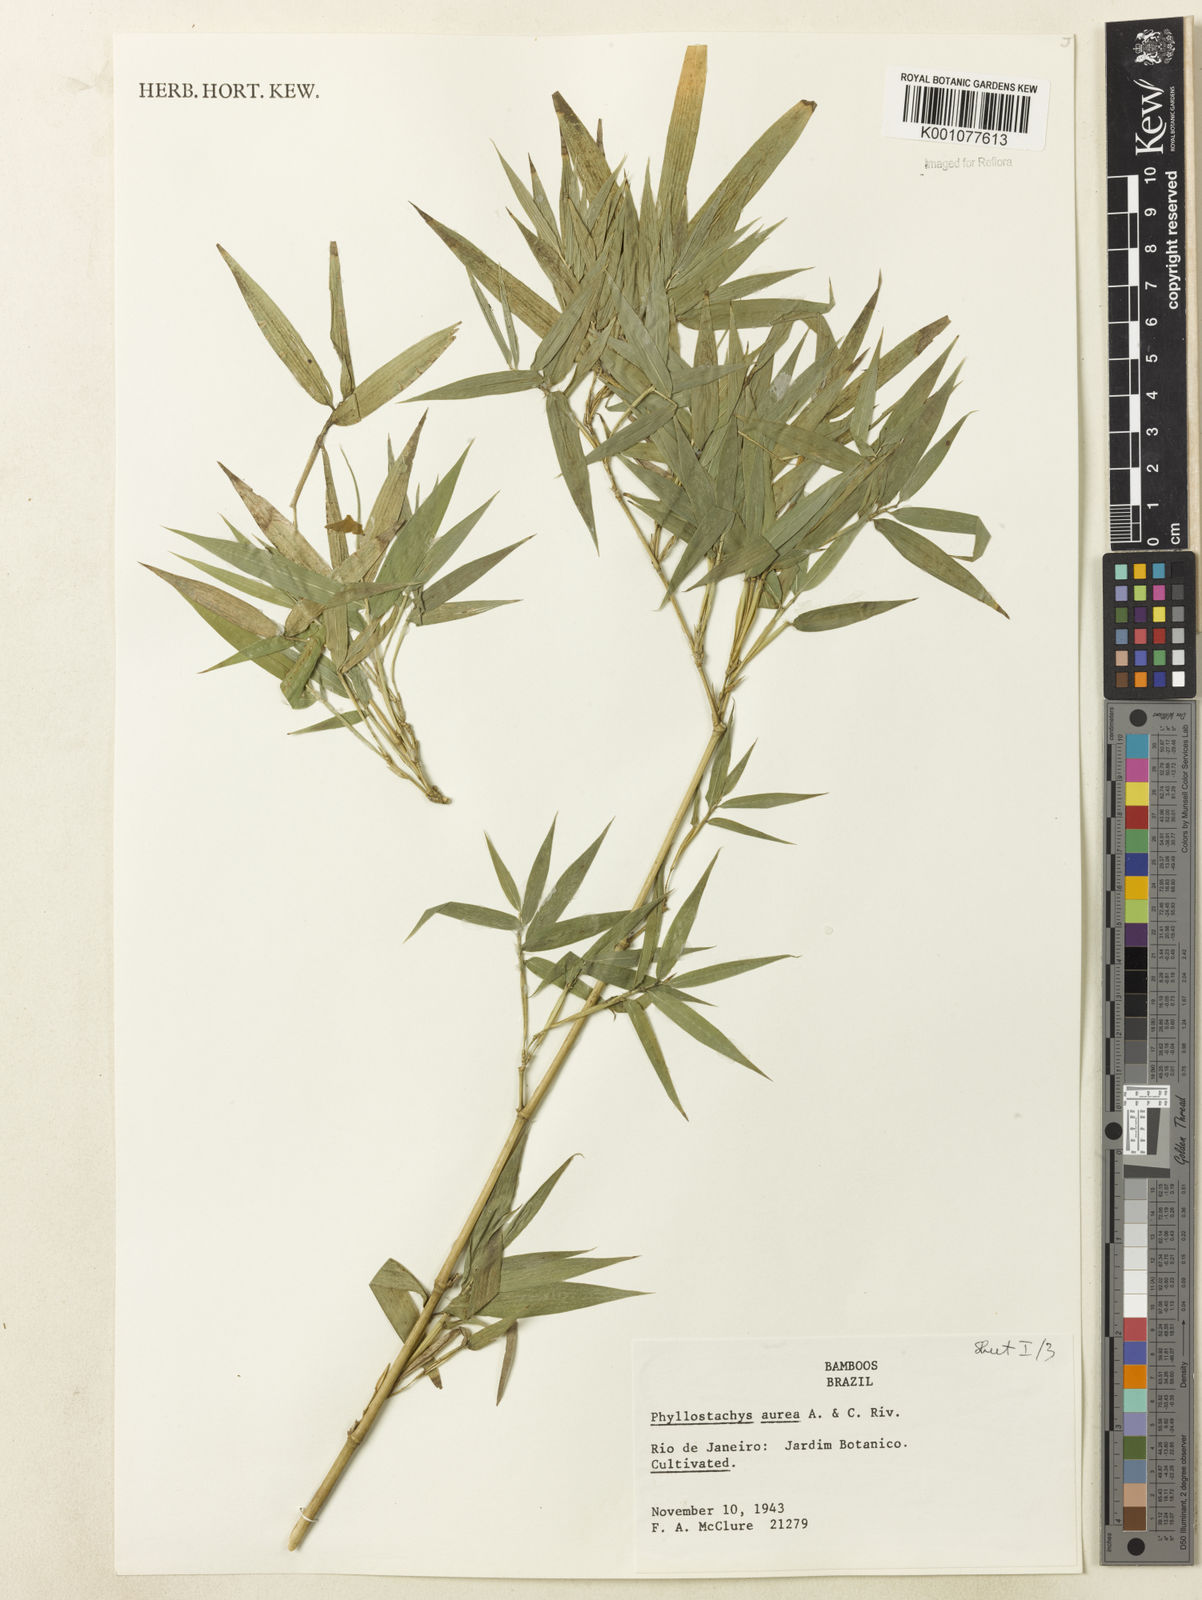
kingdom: Plantae
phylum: Tracheophyta
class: Liliopsida
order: Poales
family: Poaceae
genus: Phyllostachys
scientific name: Phyllostachys
